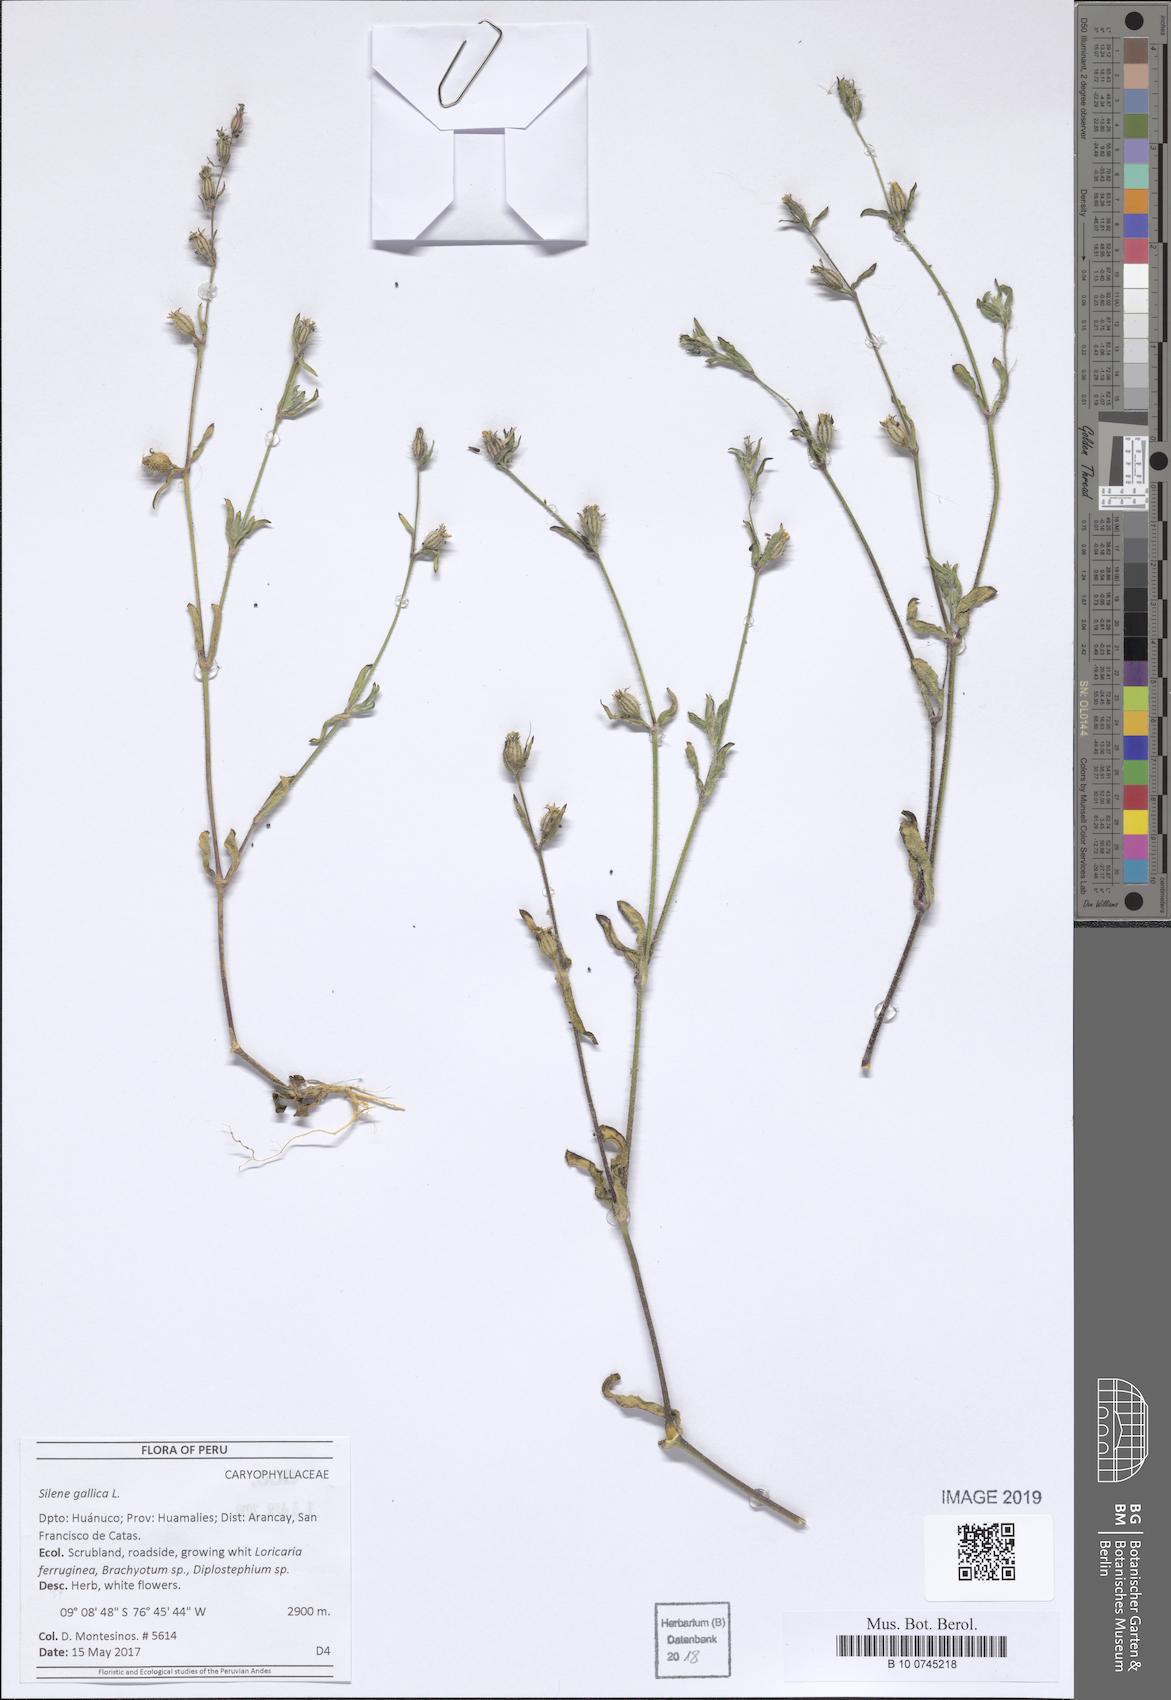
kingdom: Plantae
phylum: Tracheophyta
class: Magnoliopsida
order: Caryophyllales
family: Caryophyllaceae
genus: Silene
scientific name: Silene gallica
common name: Small-flowered catchfly
